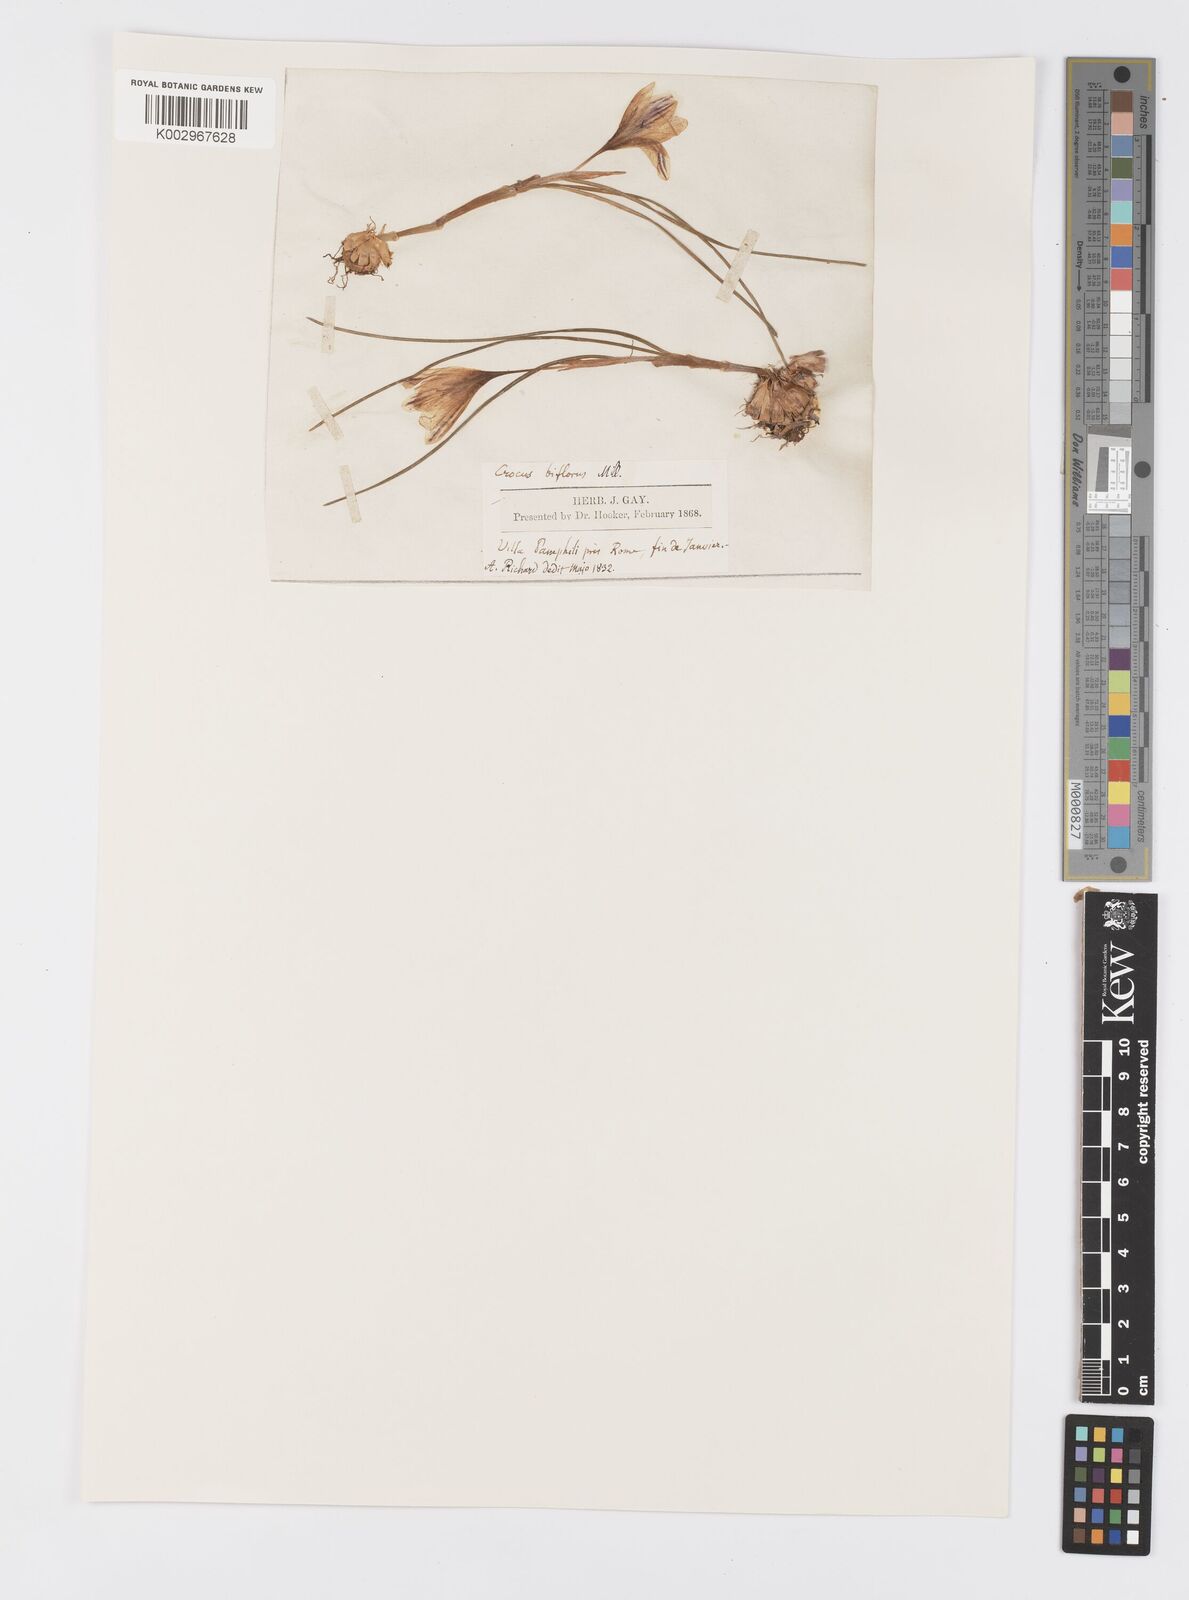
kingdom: Plantae
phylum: Tracheophyta
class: Liliopsida
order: Asparagales
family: Iridaceae
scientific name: Iridaceae
